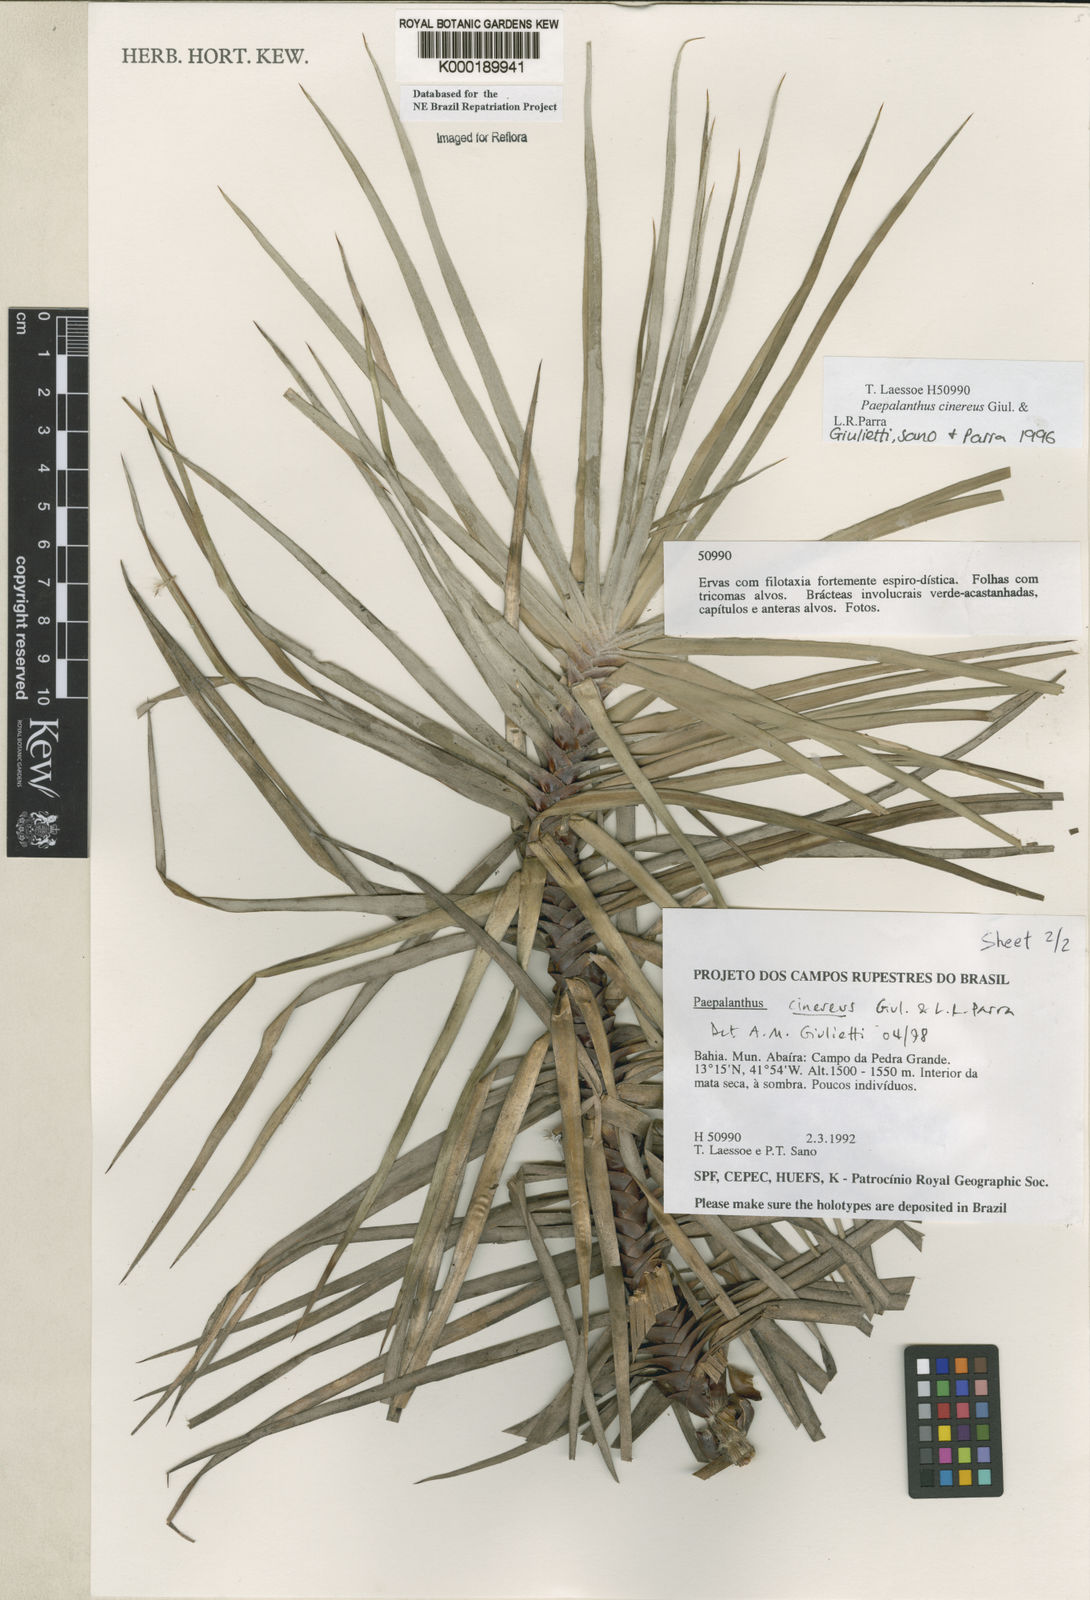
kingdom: Plantae
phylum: Tracheophyta
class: Liliopsida
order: Poales
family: Eriocaulaceae
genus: Paepalanthus
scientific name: Paepalanthus cinereus
